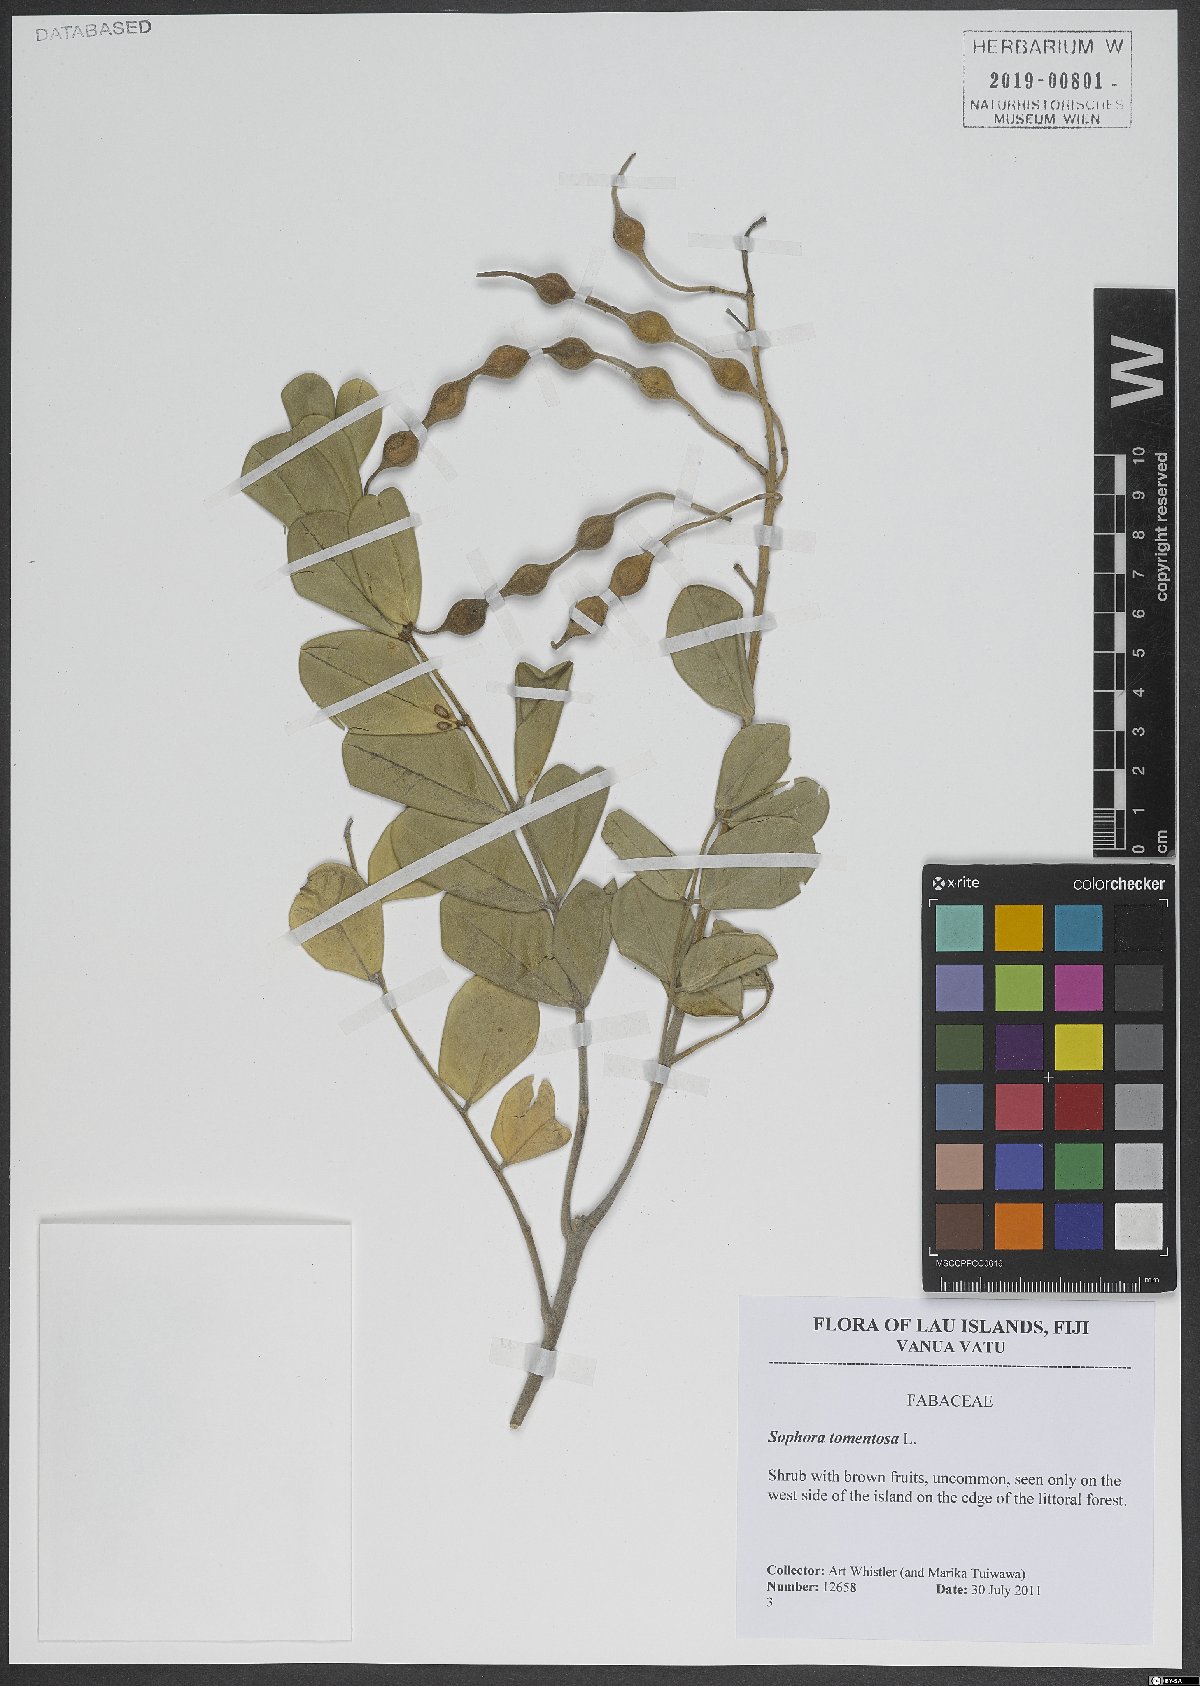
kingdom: Plantae
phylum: Tracheophyta
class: Magnoliopsida
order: Fabales
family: Fabaceae
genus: Sophora
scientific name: Sophora tomentosa
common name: Yellow necklacepod
